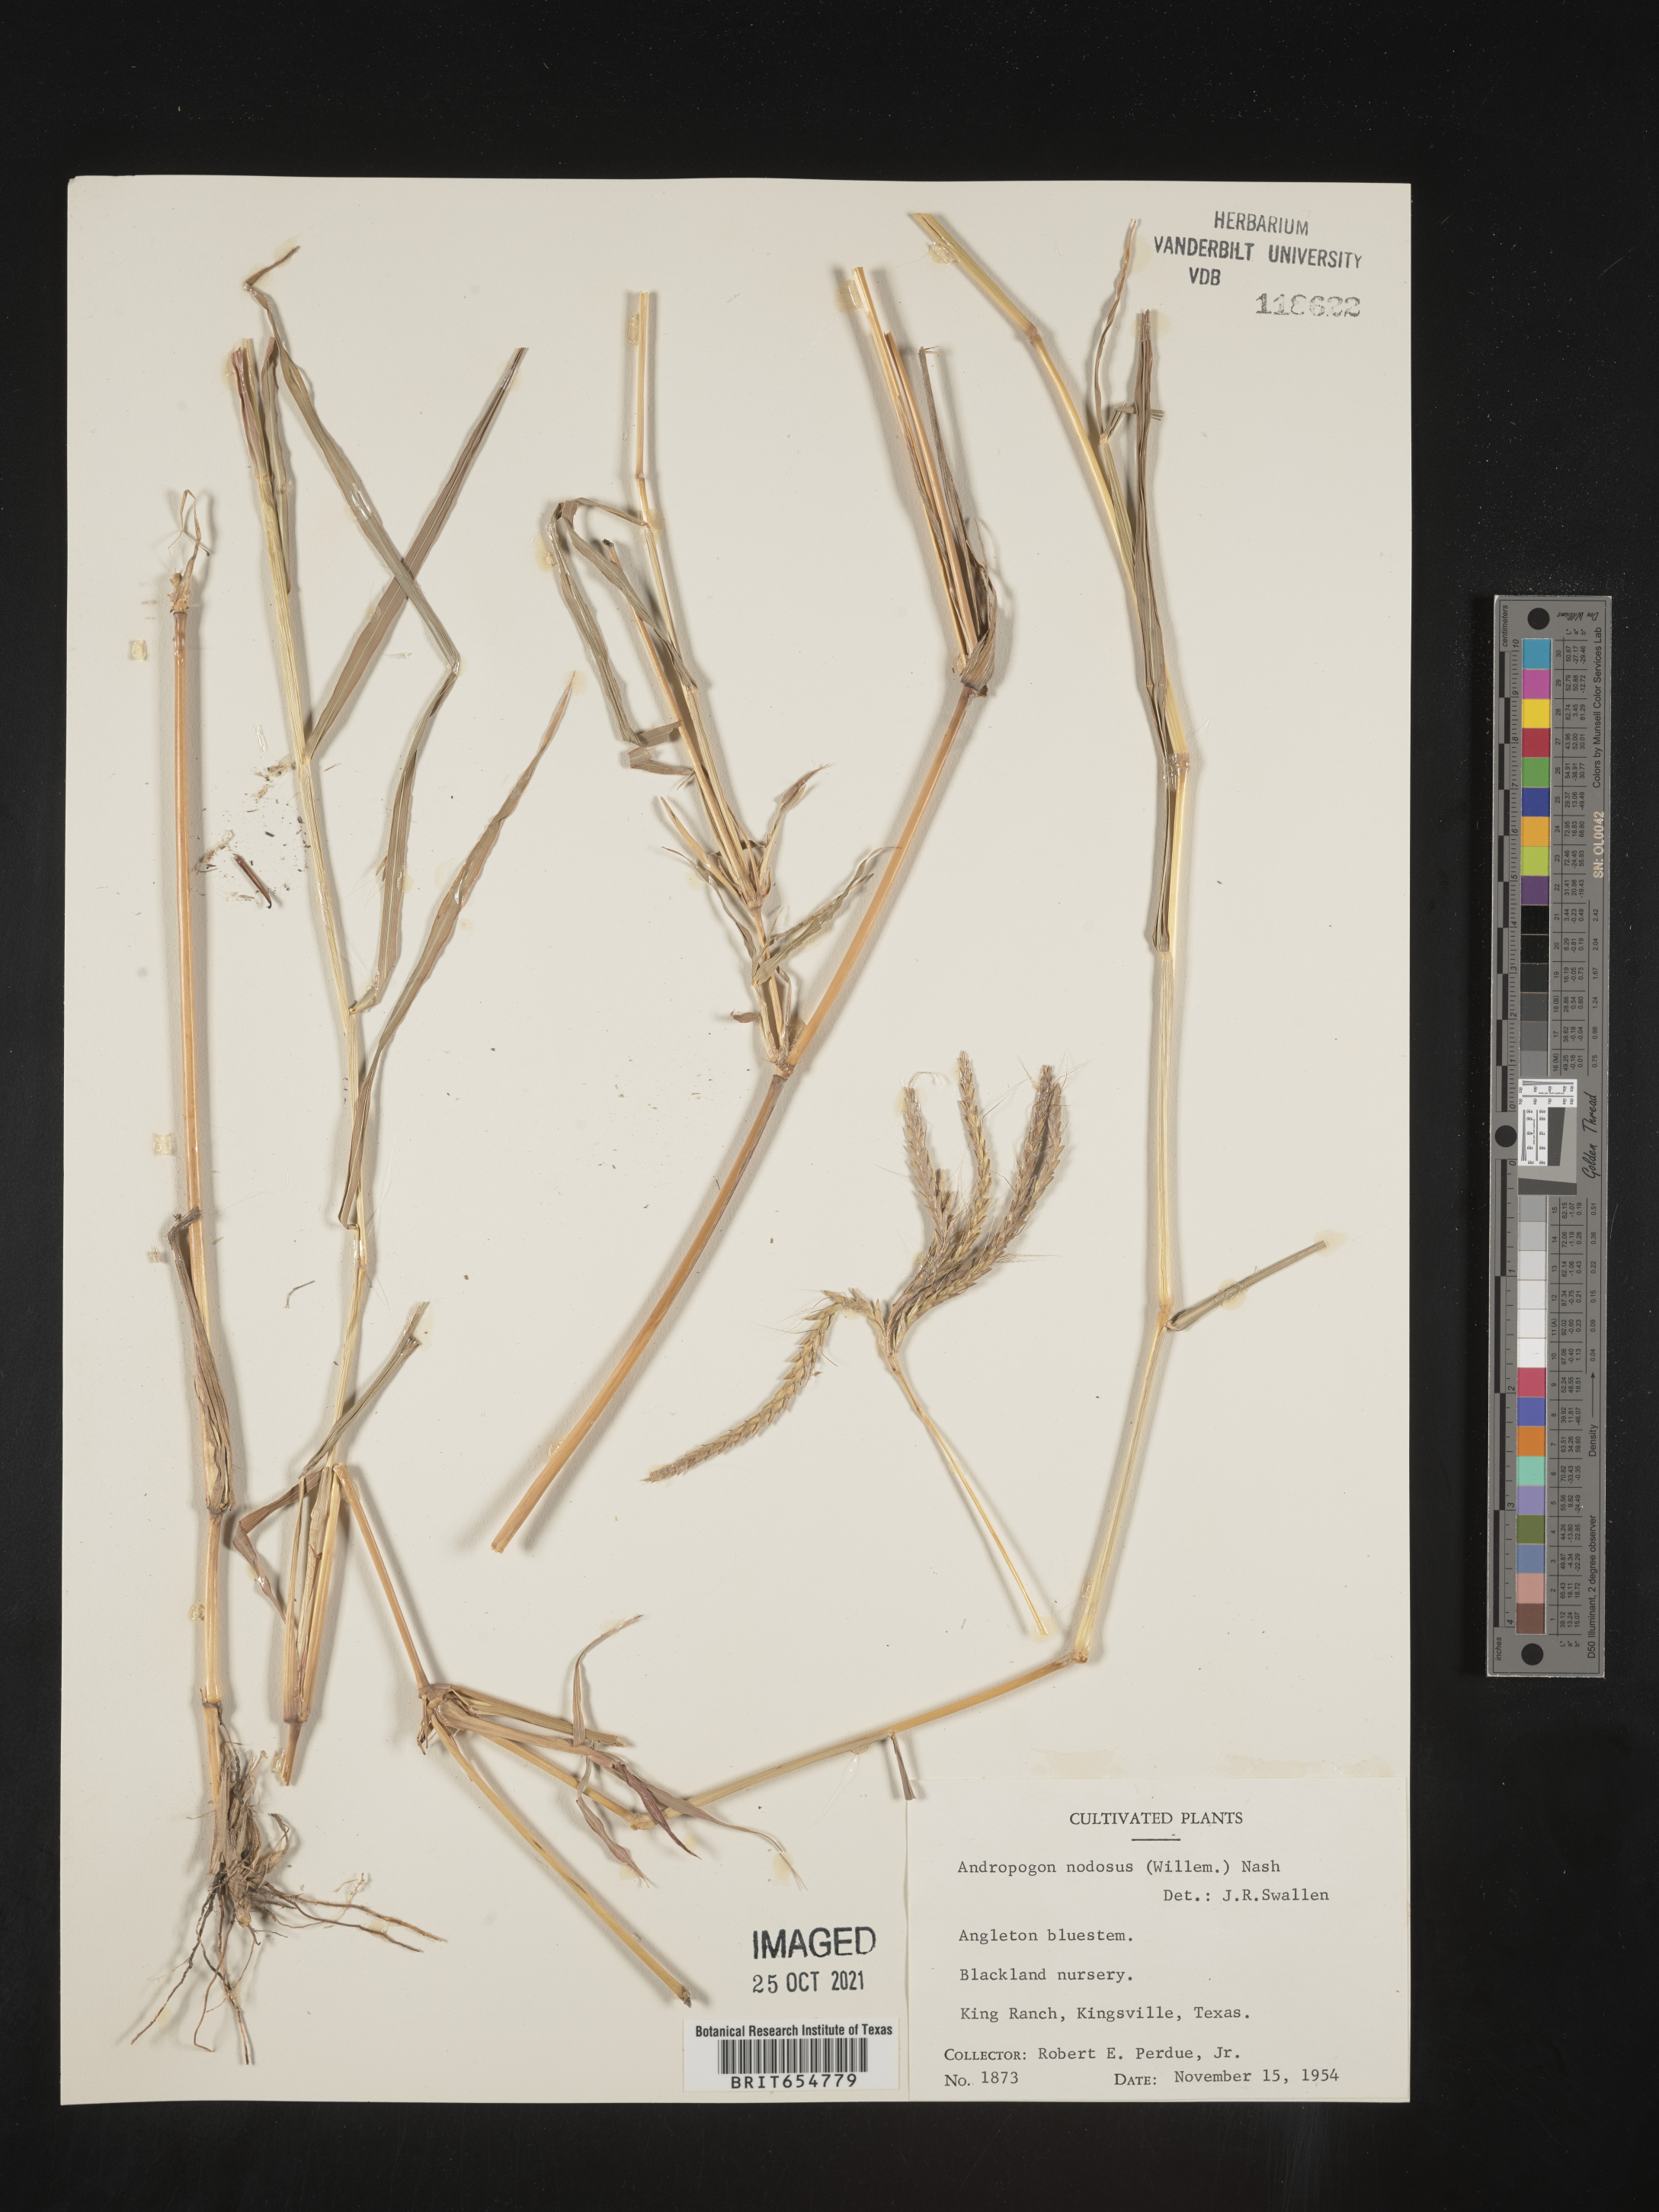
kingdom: Plantae
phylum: Tracheophyta
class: Liliopsida
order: Poales
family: Poaceae
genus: Andropogon
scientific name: Andropogon
